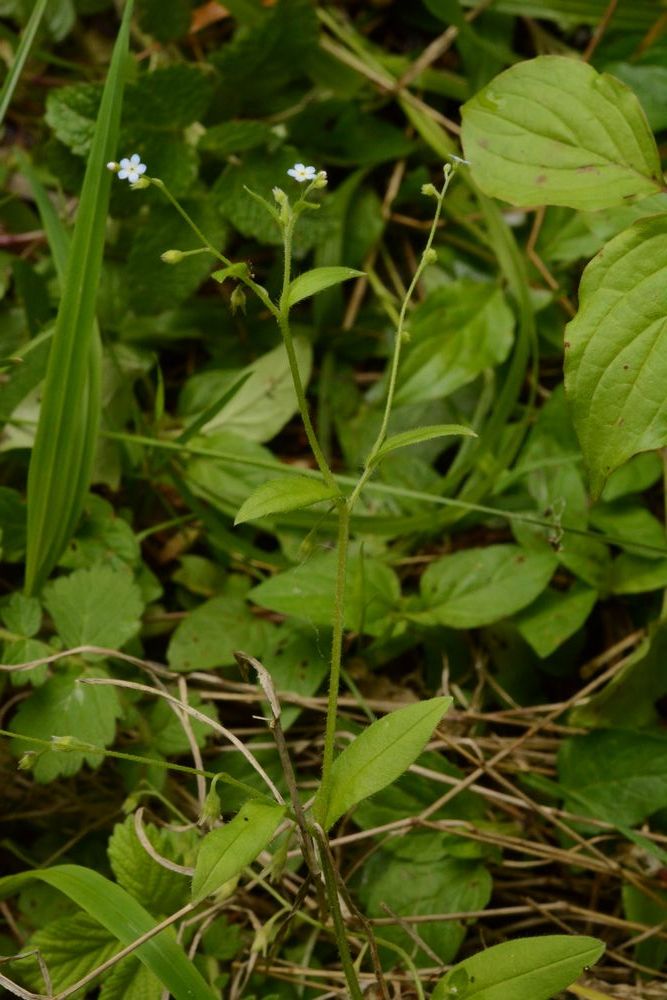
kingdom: Plantae
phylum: Tracheophyta
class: Magnoliopsida
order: Boraginales
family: Boraginaceae
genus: Myosotis
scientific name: Myosotis arvensis
